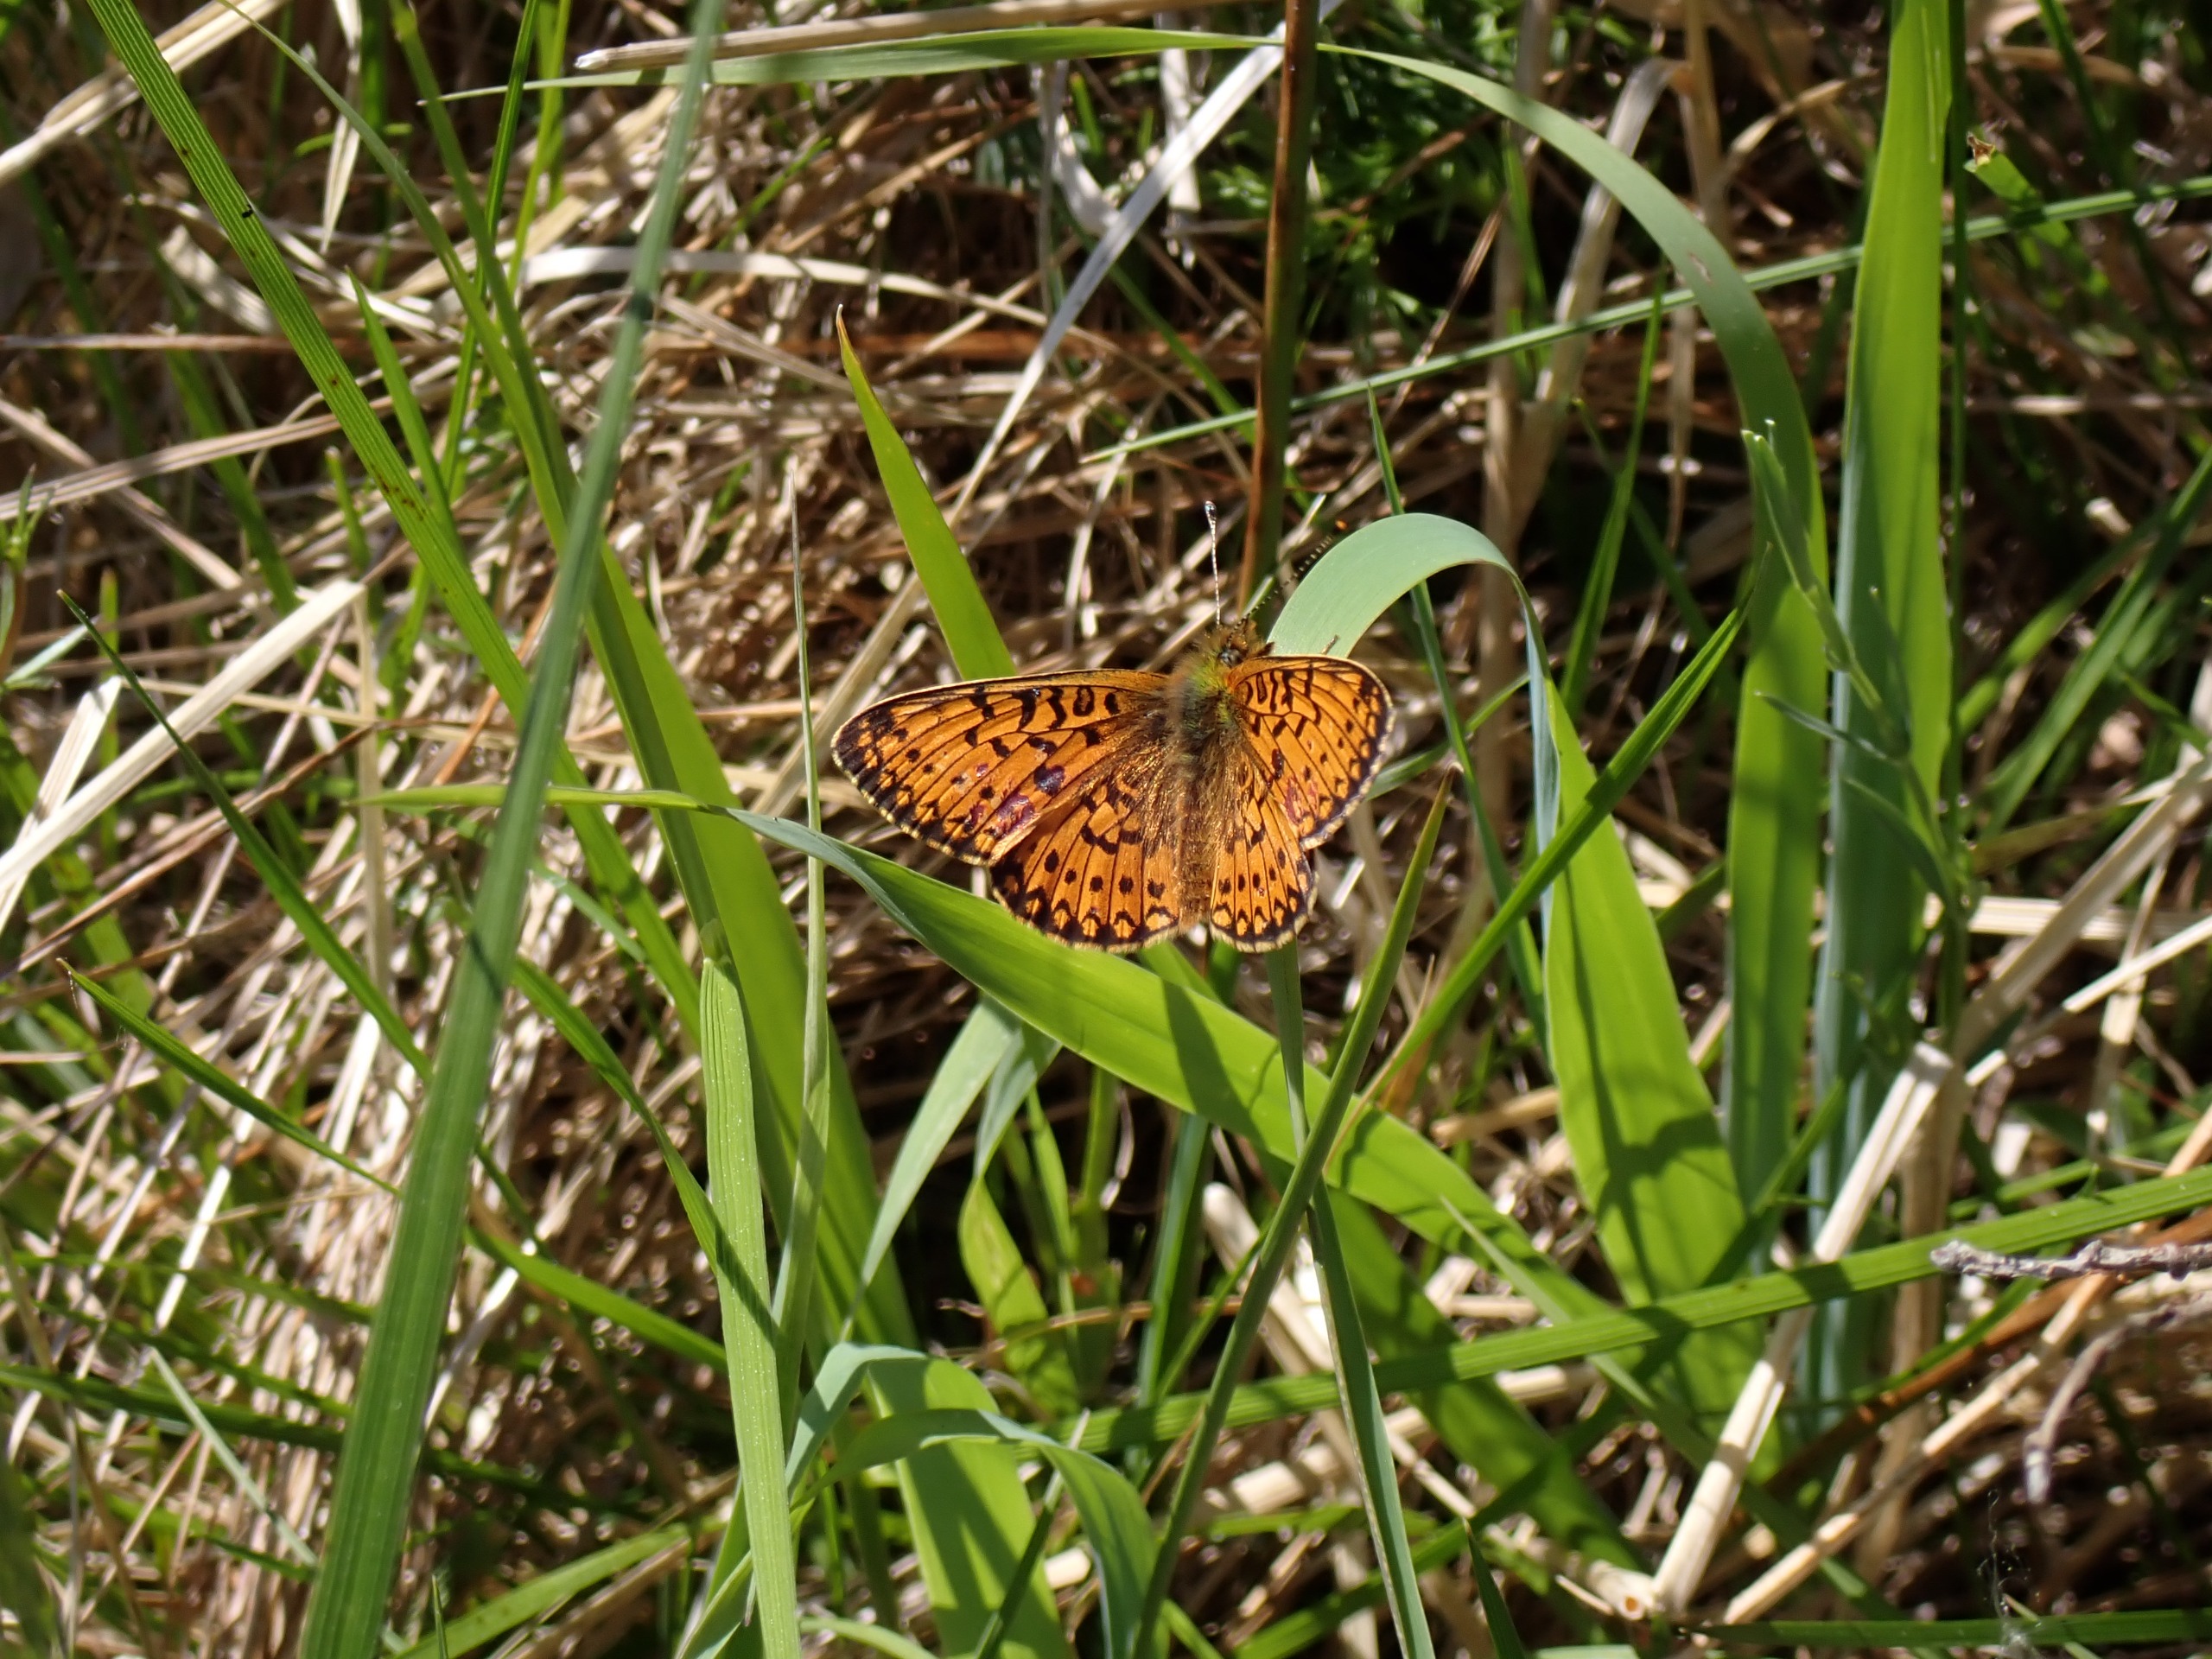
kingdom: Animalia
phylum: Arthropoda
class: Insecta
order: Lepidoptera
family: Nymphalidae
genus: Boloria
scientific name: Boloria selene
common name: Brunlig perlemorsommerfugl
